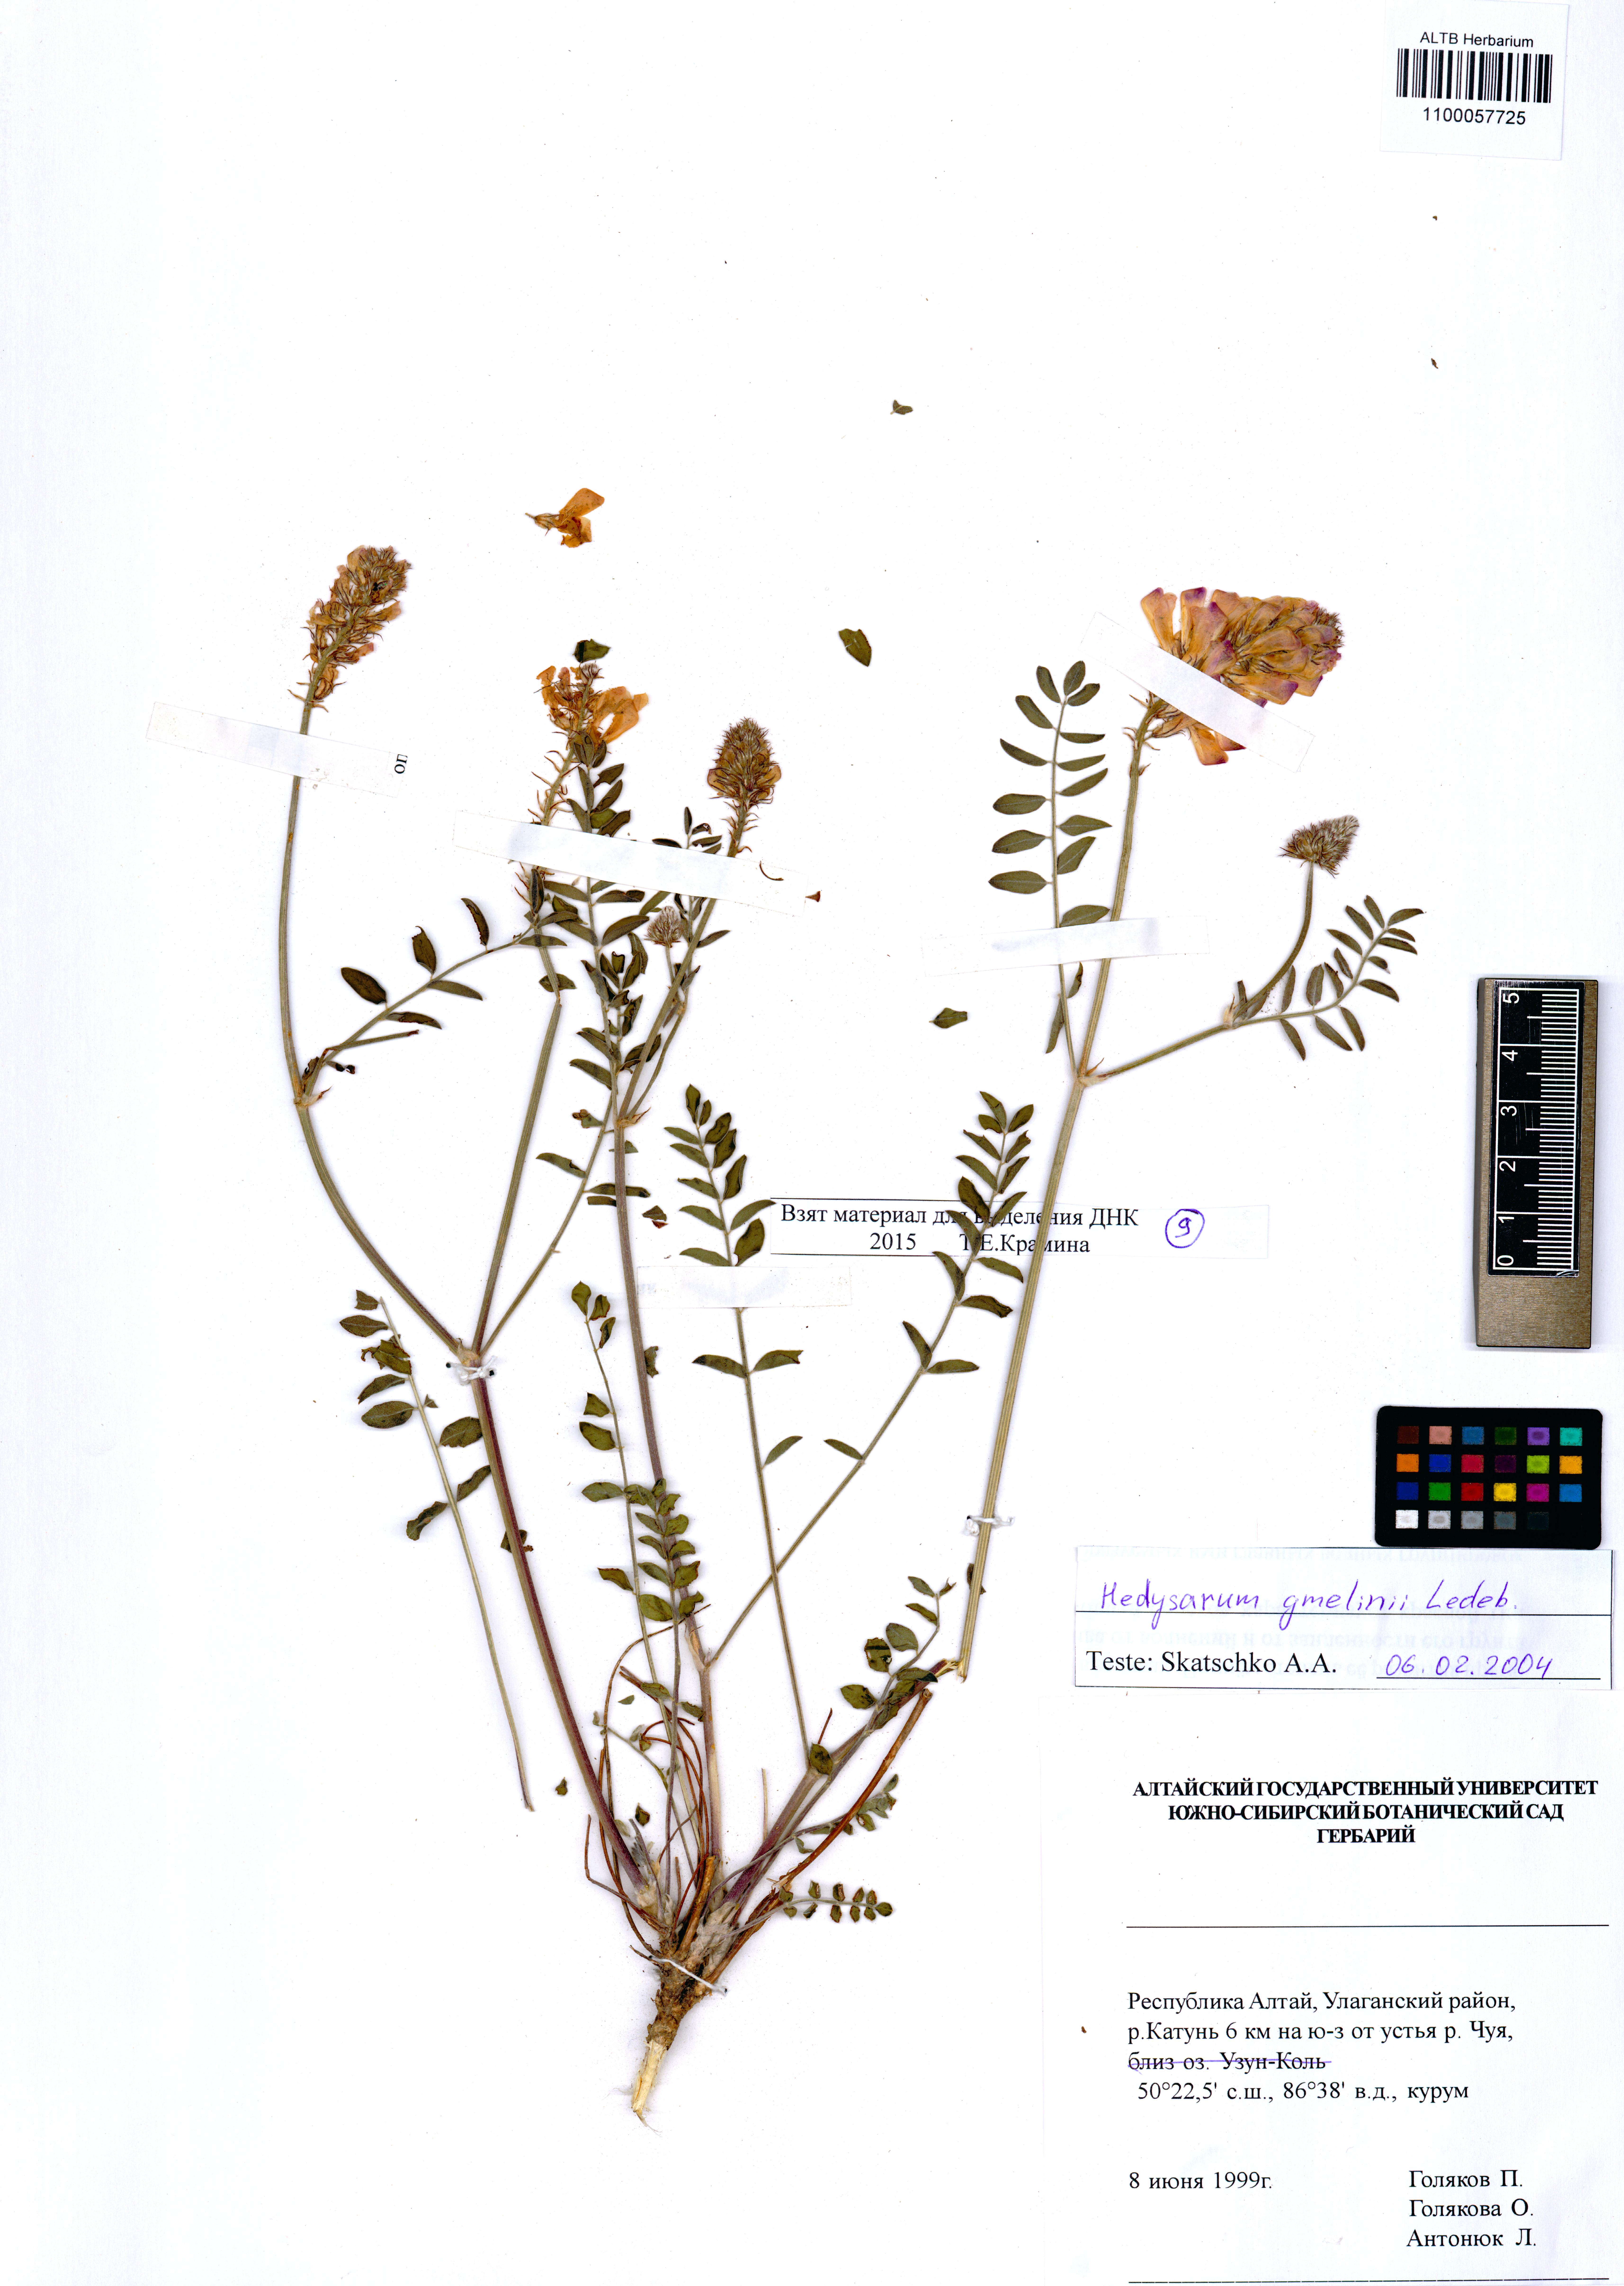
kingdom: Plantae
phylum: Tracheophyta
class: Magnoliopsida
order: Fabales
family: Fabaceae
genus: Hedysarum
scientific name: Hedysarum gmelinii
